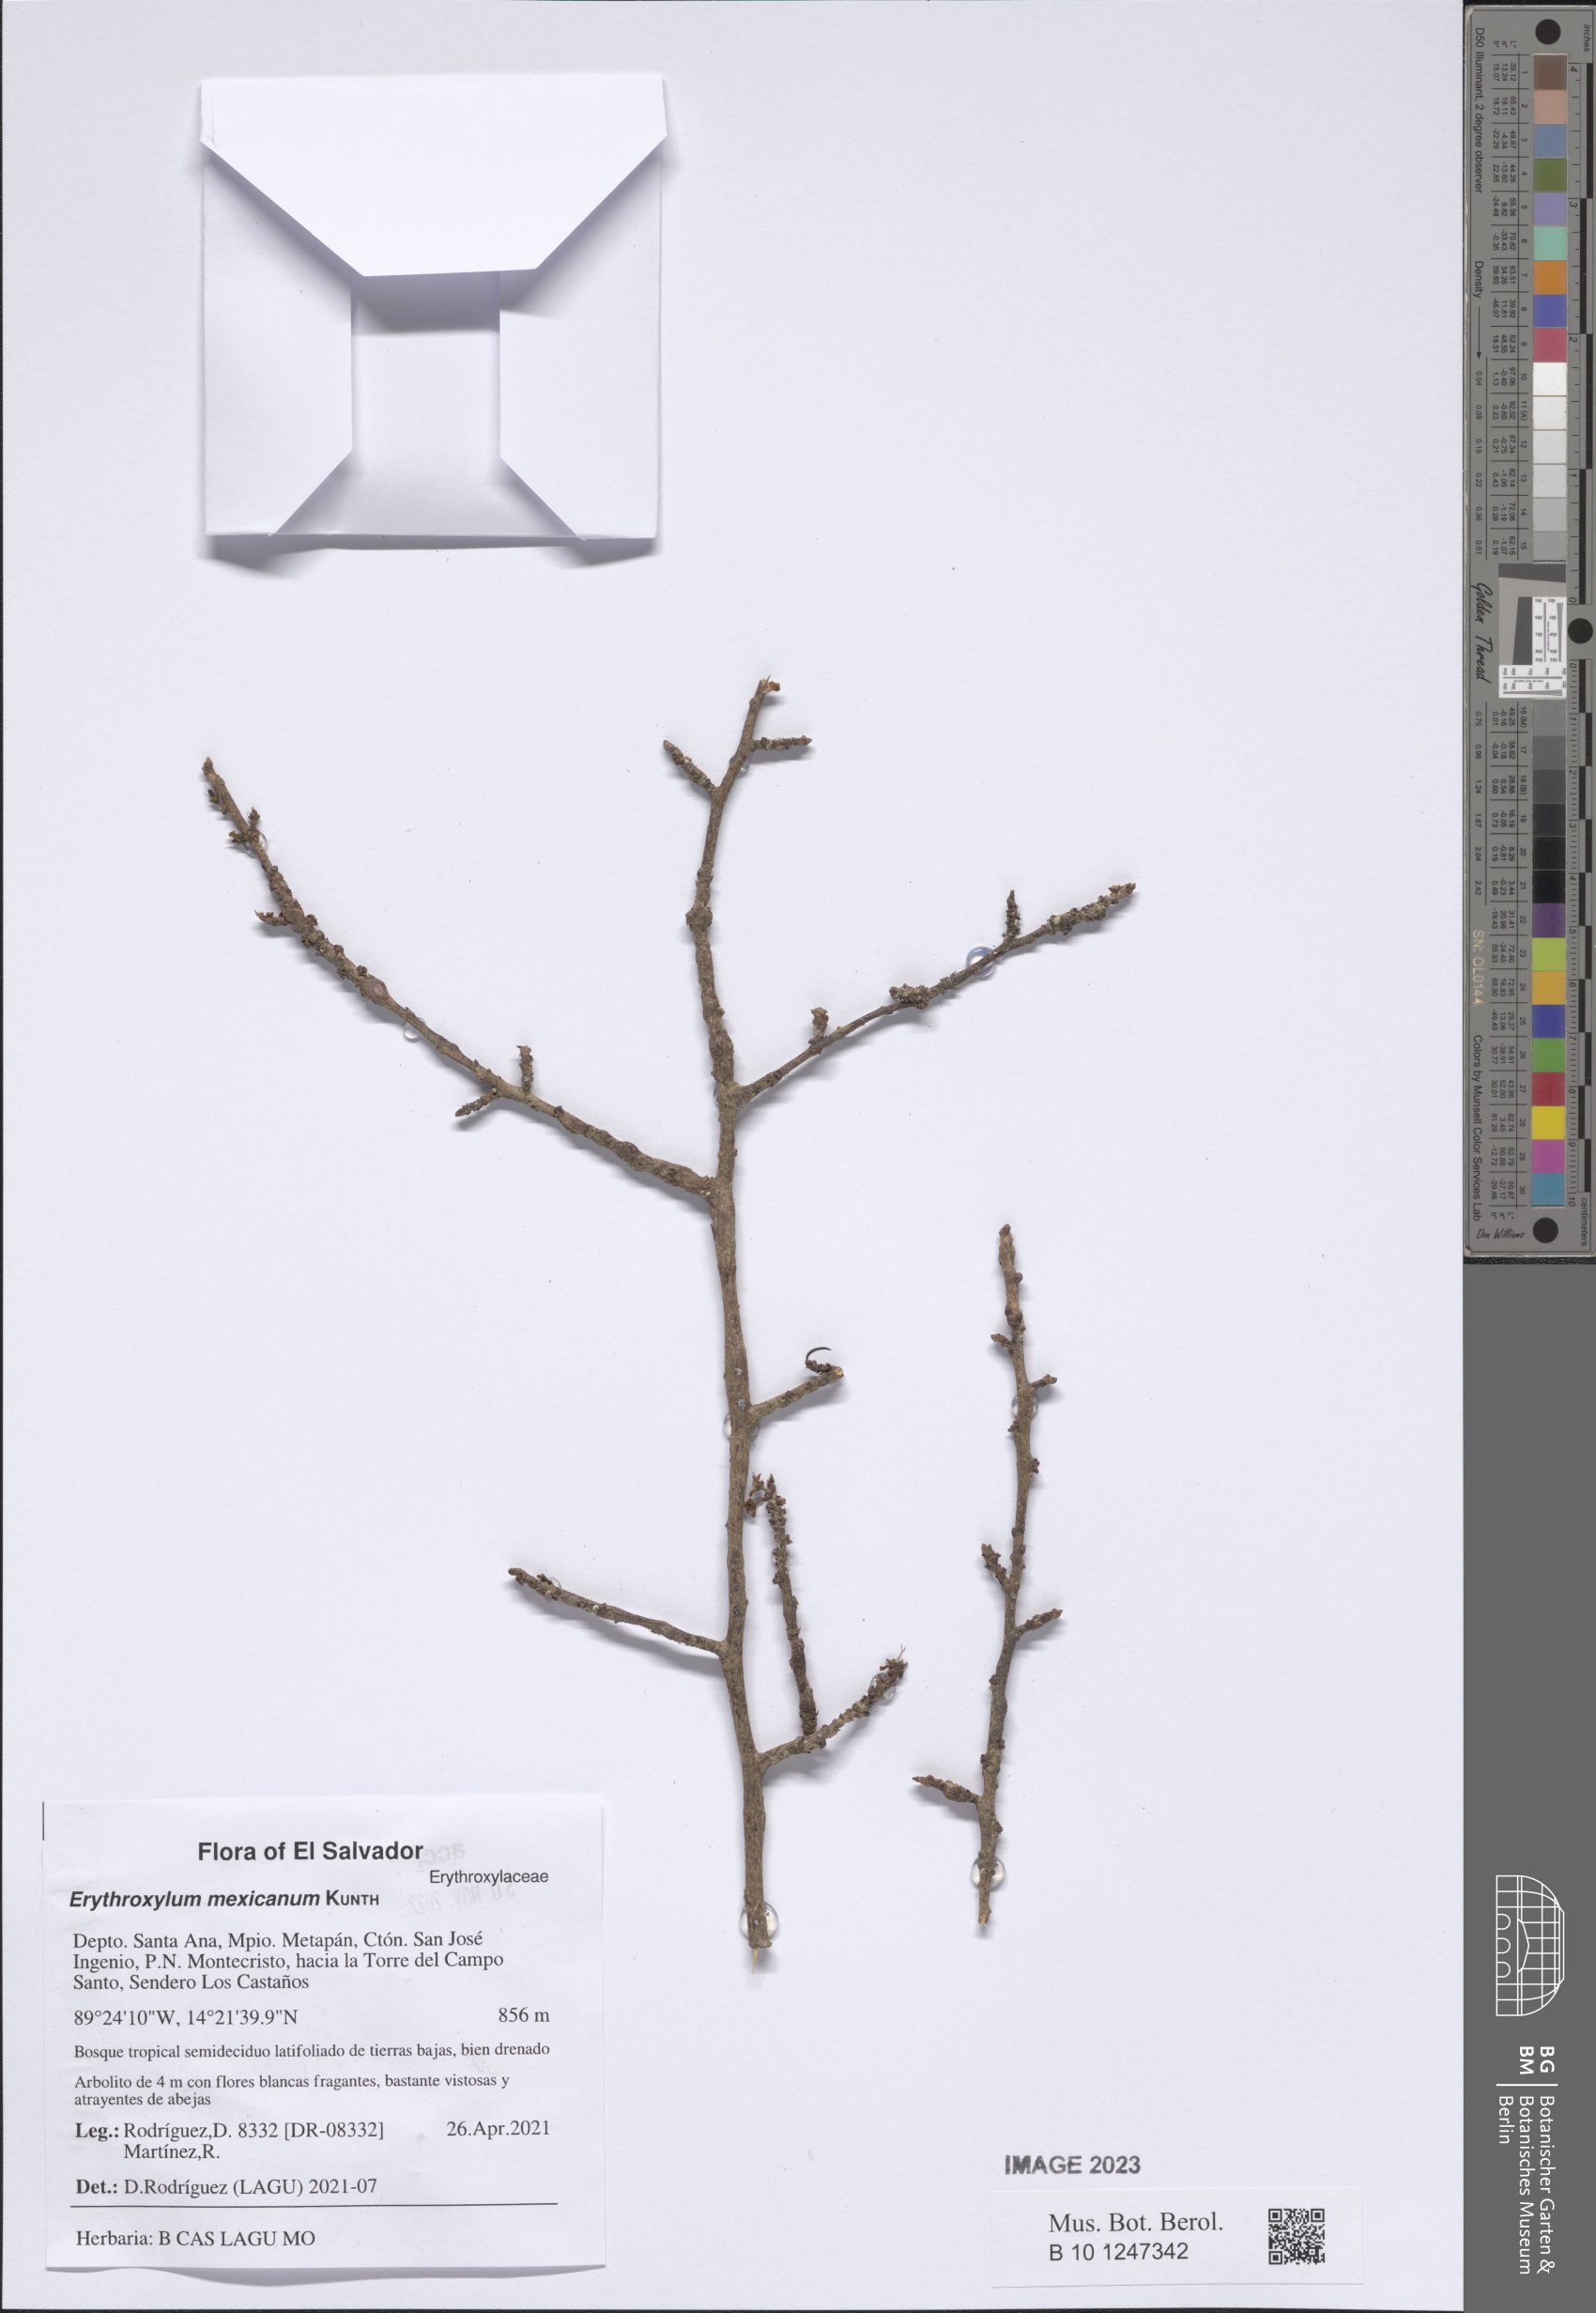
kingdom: Plantae
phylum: Tracheophyta
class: Magnoliopsida
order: Malpighiales
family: Erythroxylaceae
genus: Erythroxylum
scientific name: Erythroxylum mexicanum
